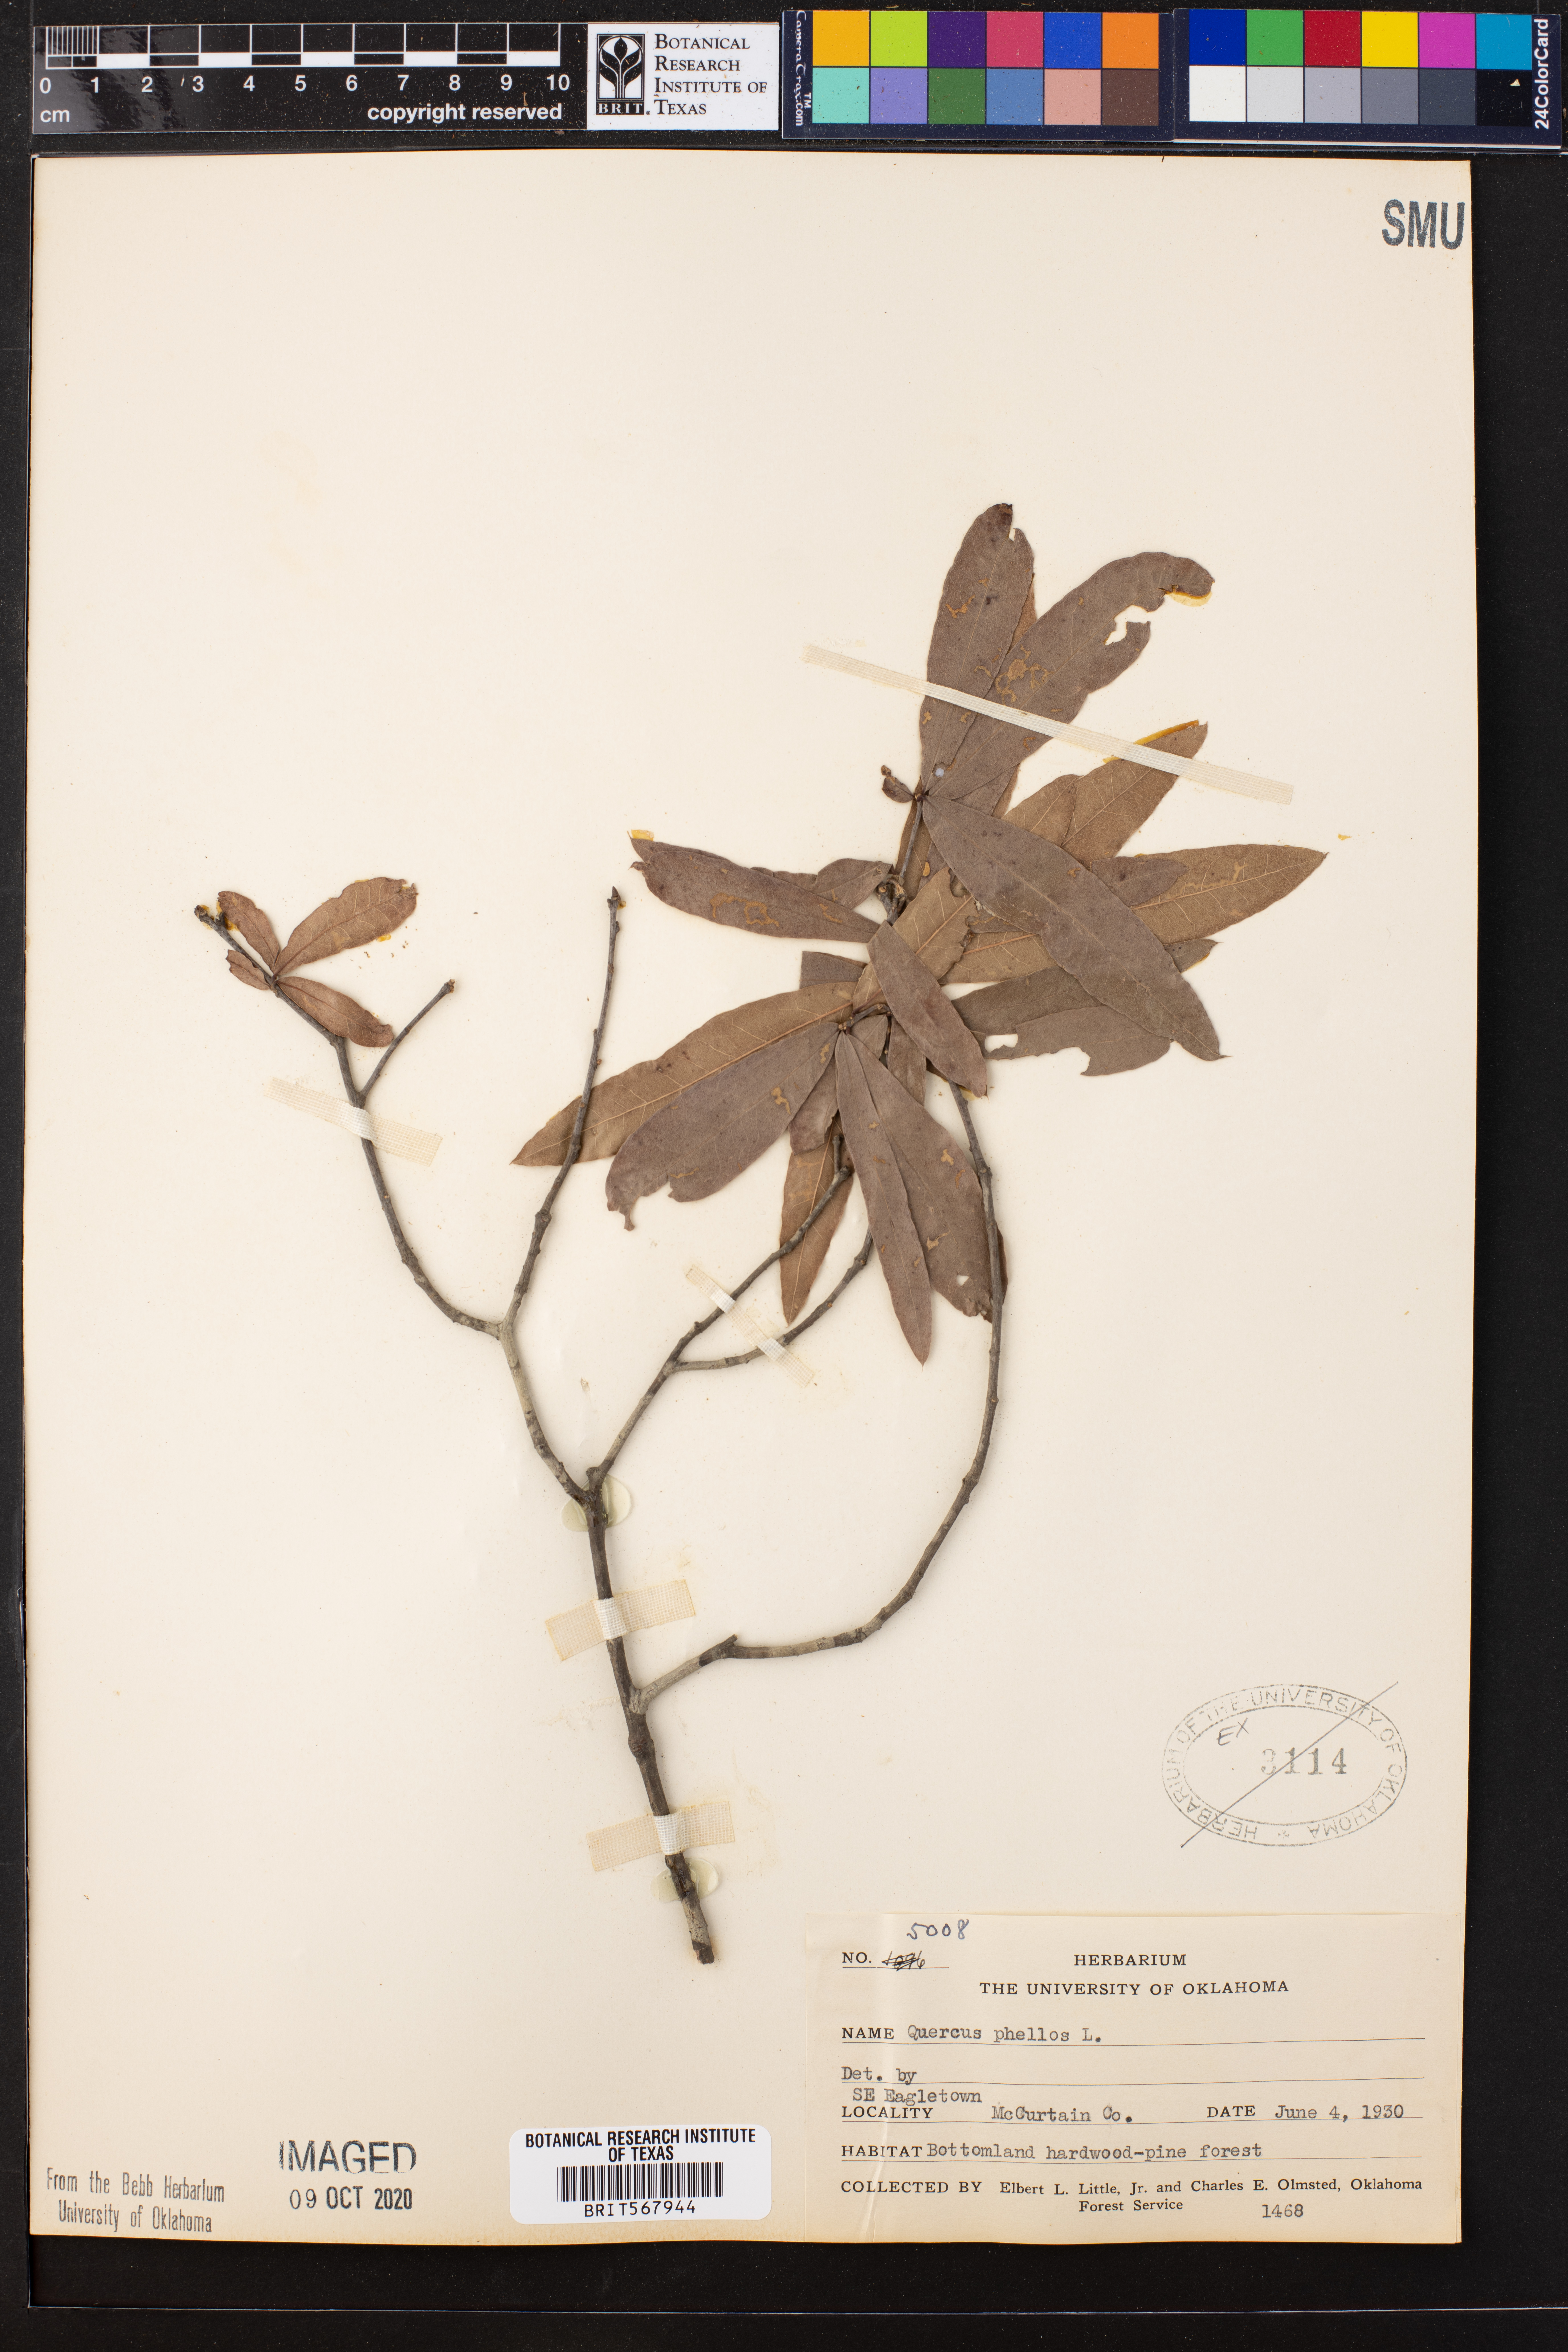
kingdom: Plantae
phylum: Tracheophyta
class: Magnoliopsida
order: Fagales
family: Fagaceae
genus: Quercus
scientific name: Quercus phellos
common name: Willow oak
